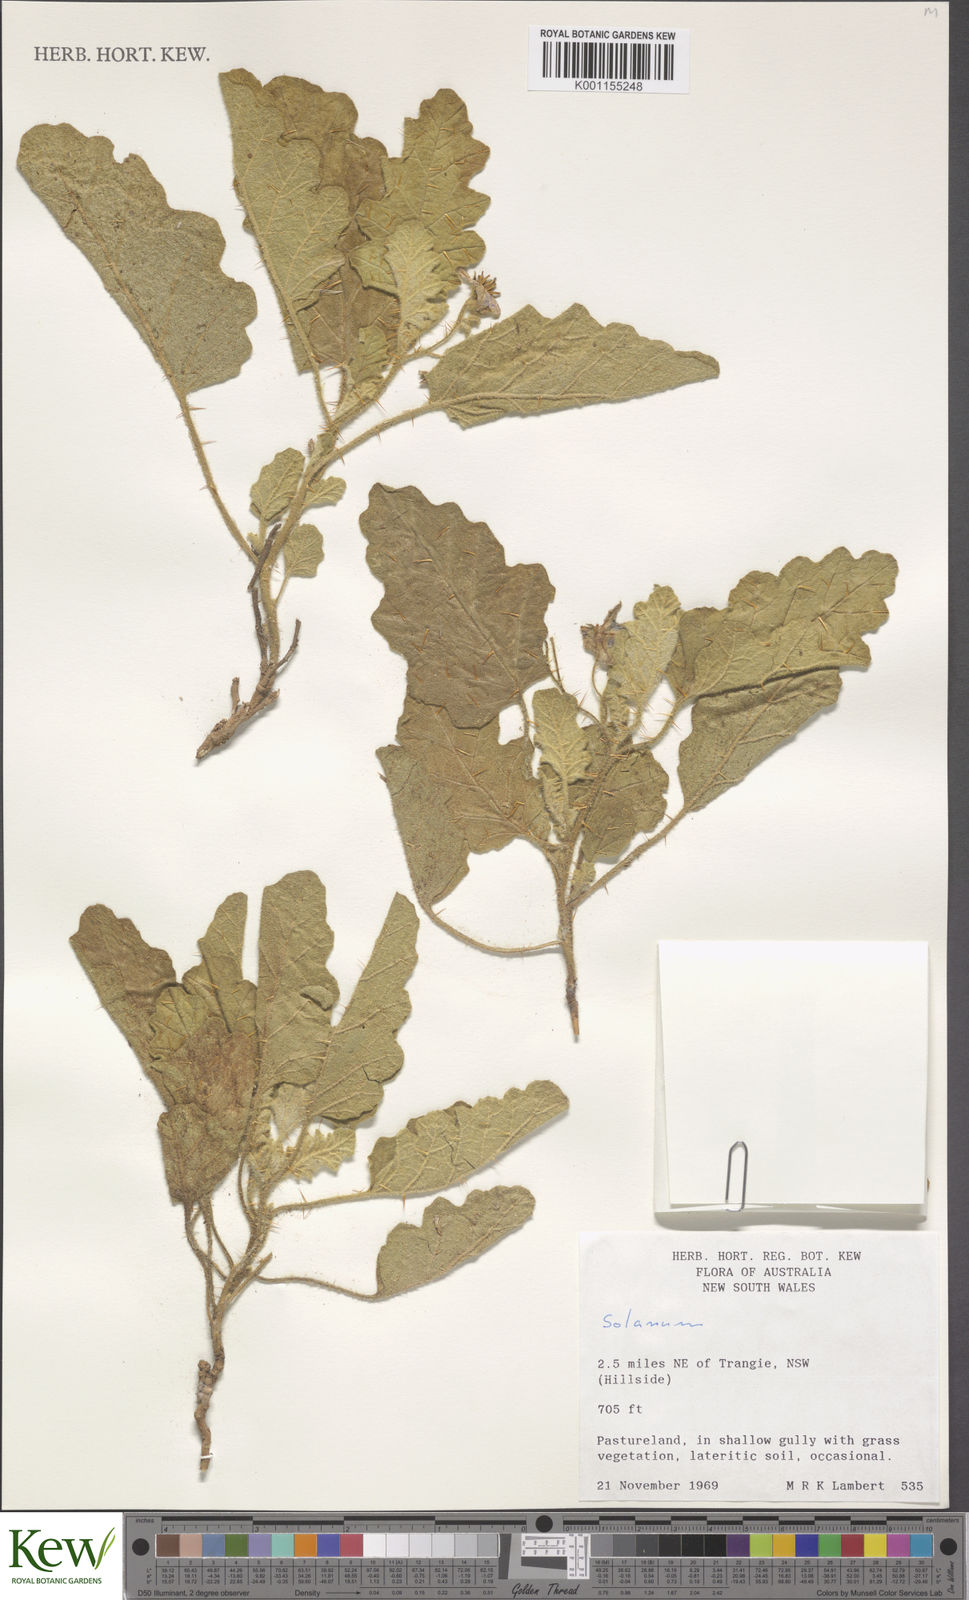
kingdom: Plantae
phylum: Tracheophyta
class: Magnoliopsida
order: Solanales
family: Solanaceae
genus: Solanum
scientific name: Solanum
